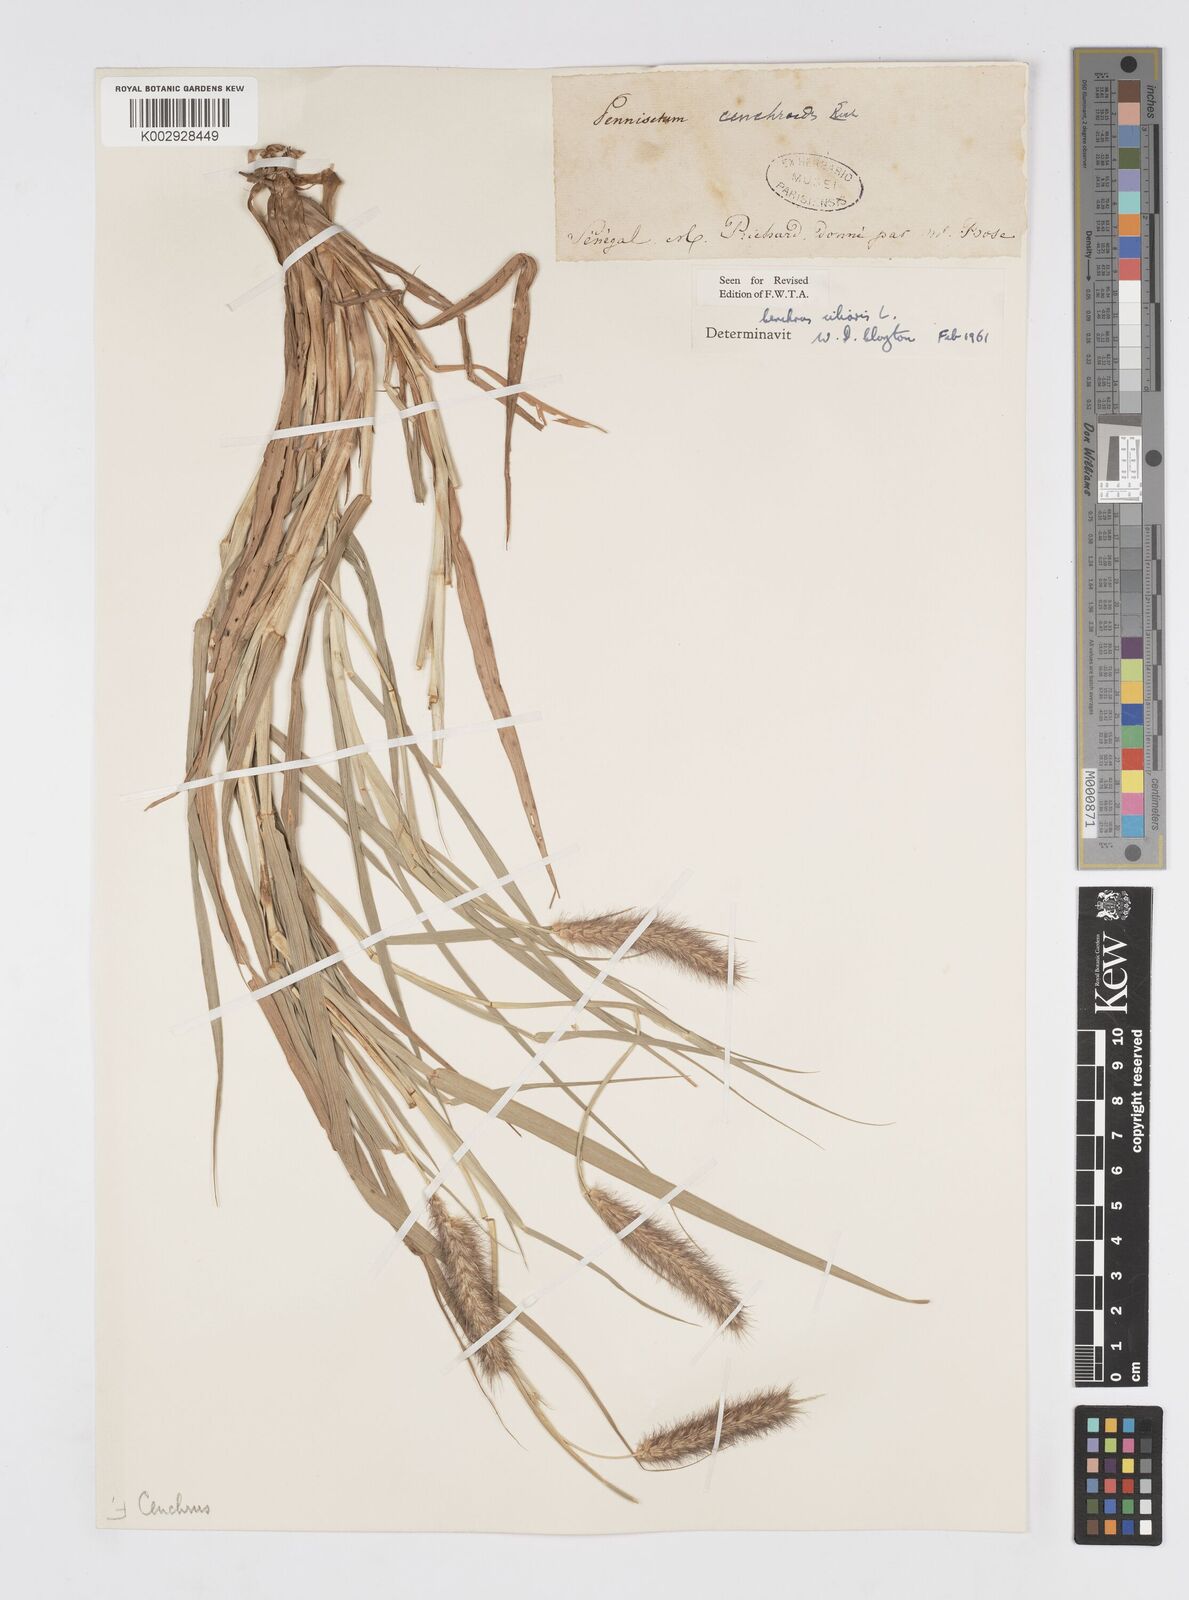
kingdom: Plantae
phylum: Tracheophyta
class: Liliopsida
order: Poales
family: Poaceae
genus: Cenchrus
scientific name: Cenchrus ciliaris
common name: Buffelgrass
